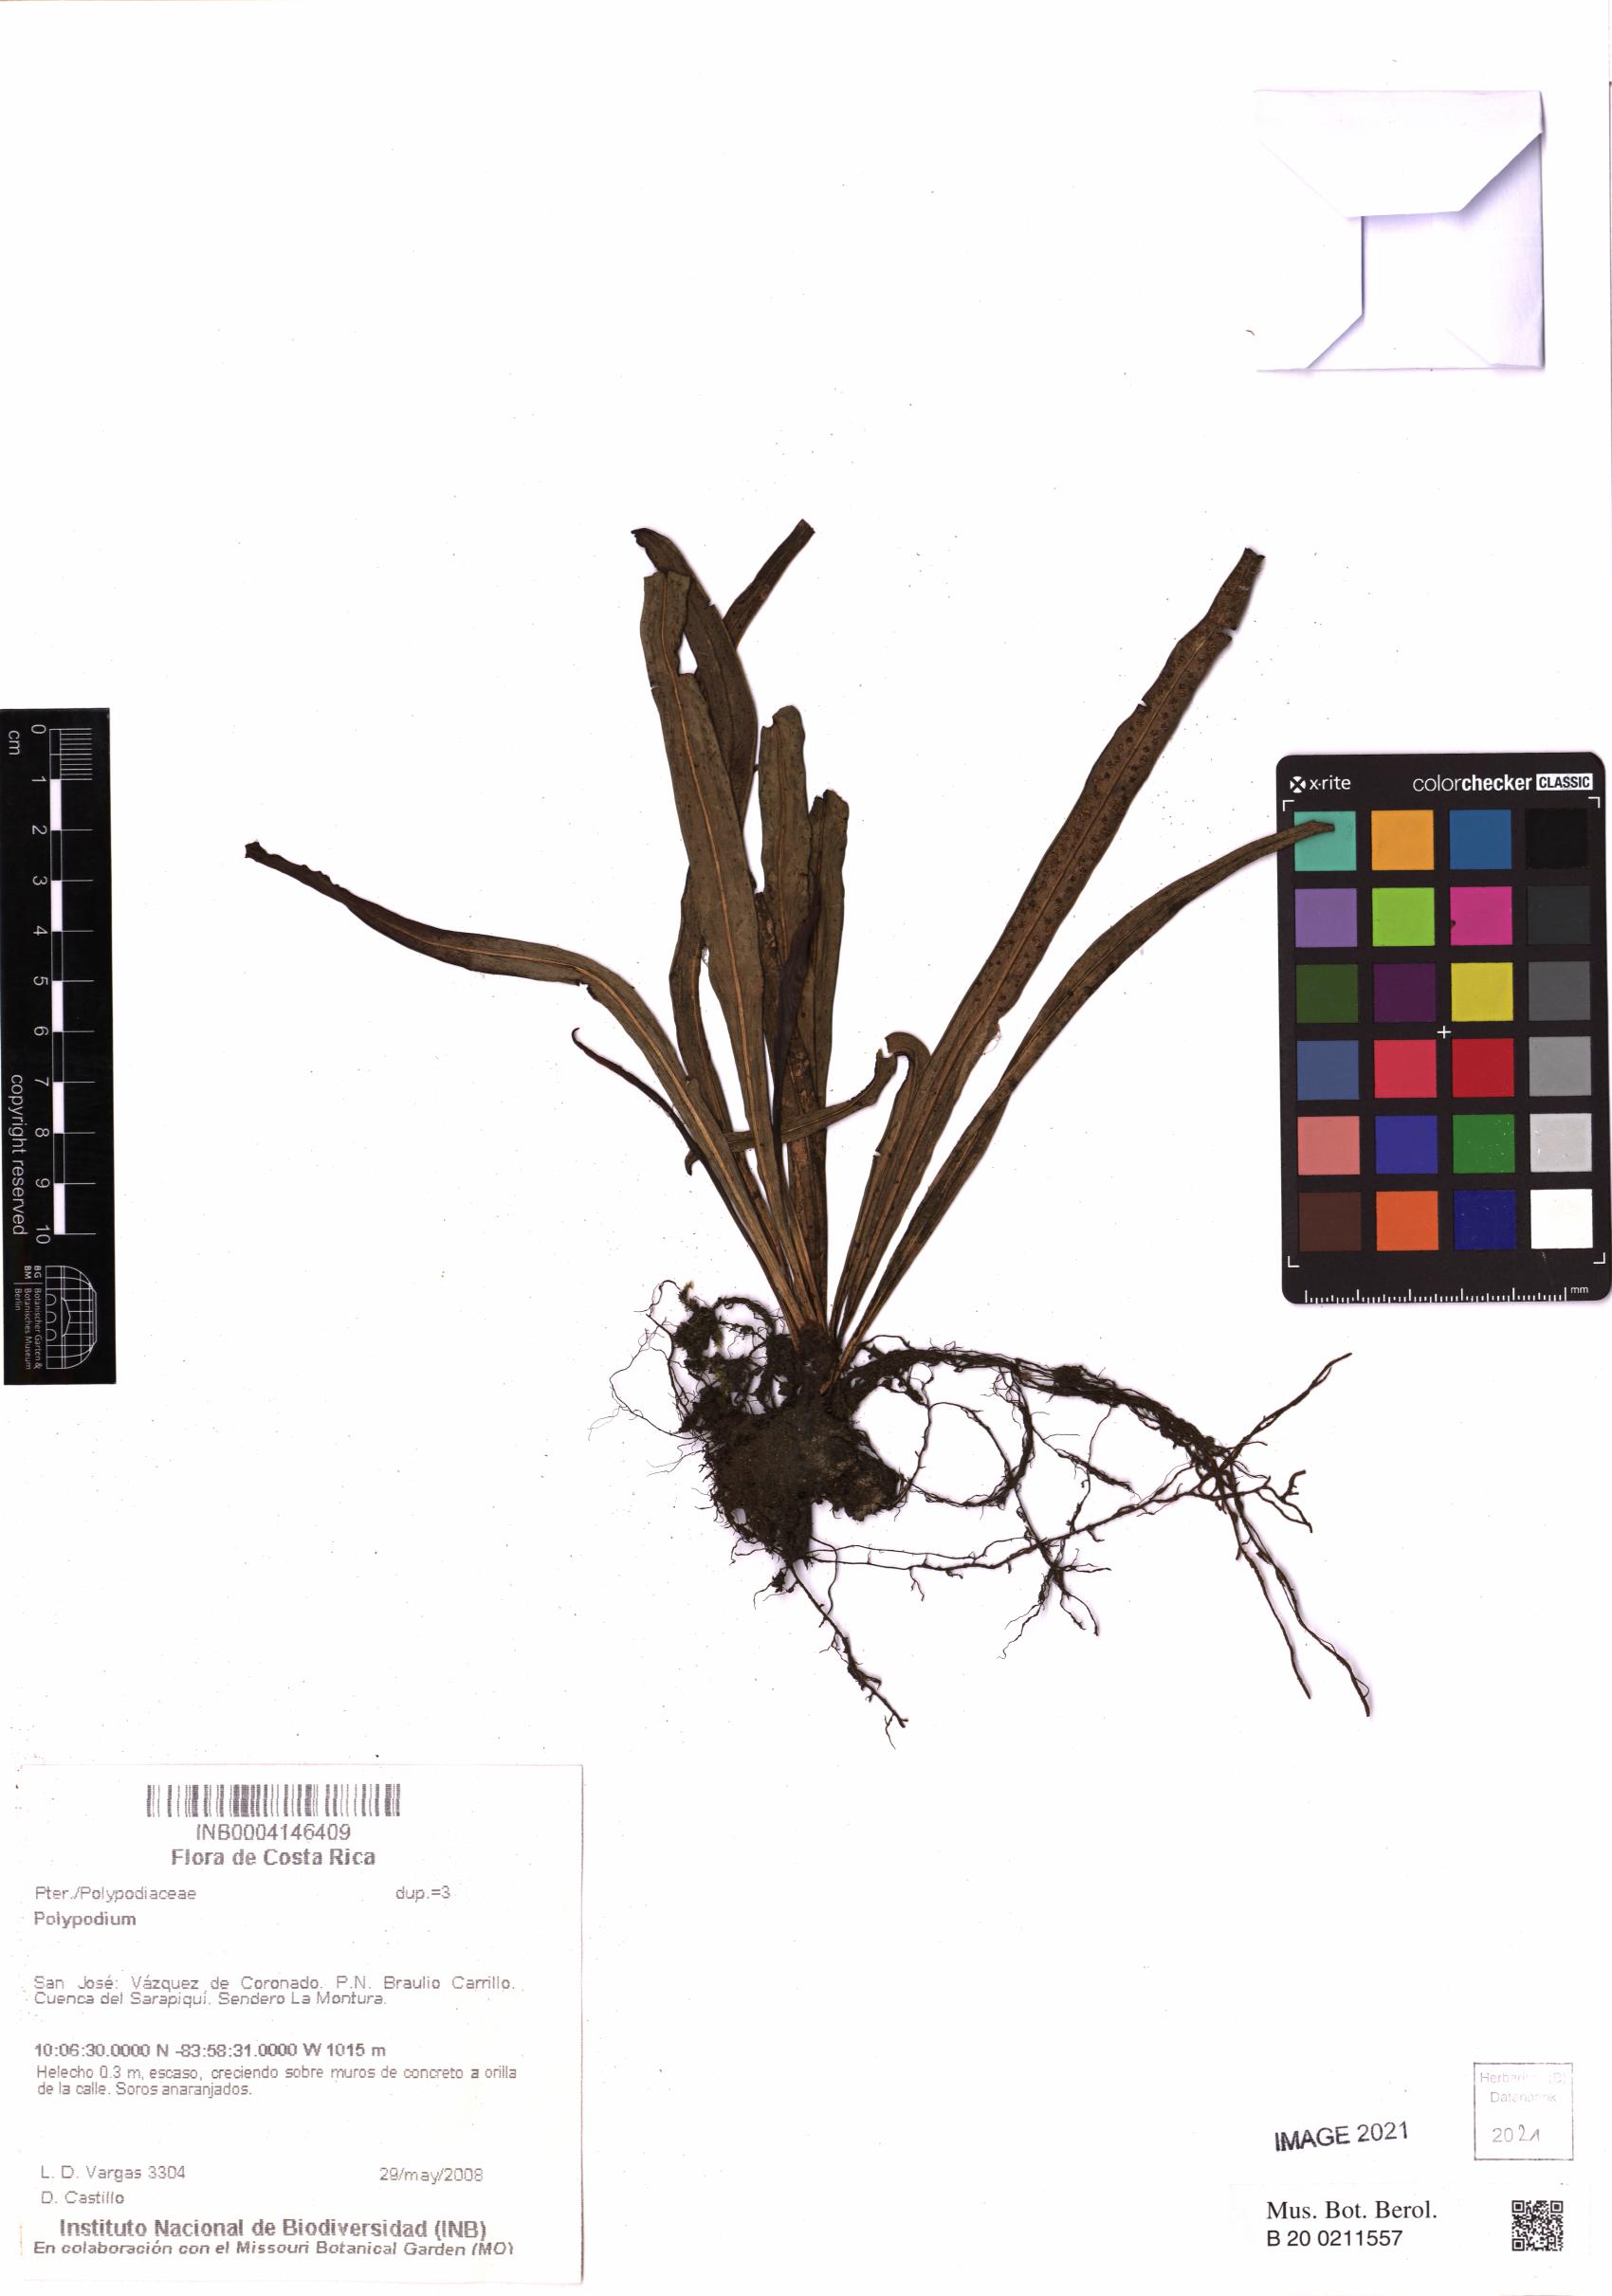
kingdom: Plantae
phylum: Tracheophyta
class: Polypodiopsida
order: Polypodiales
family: Polypodiaceae
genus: Campyloneurum
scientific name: Campyloneurum
